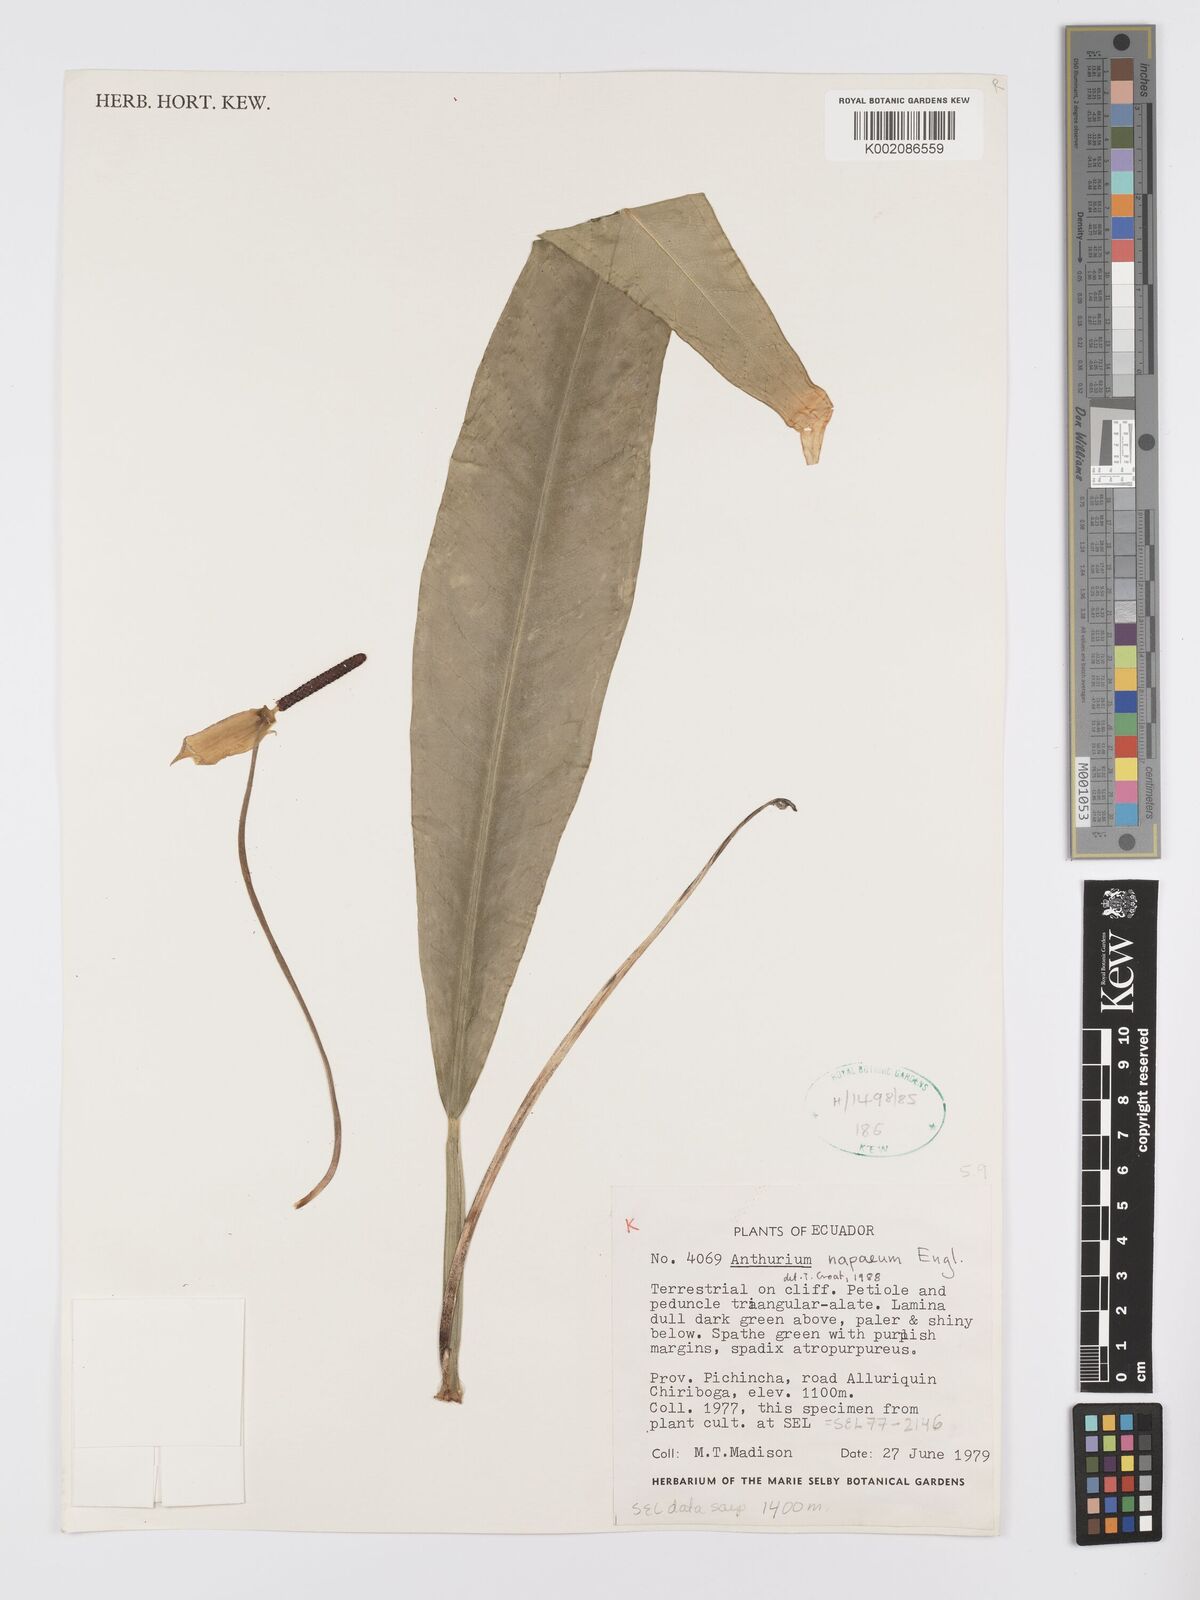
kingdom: Plantae
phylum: Tracheophyta
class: Liliopsida
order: Alismatales
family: Araceae
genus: Anthurium
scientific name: Anthurium napaeum
